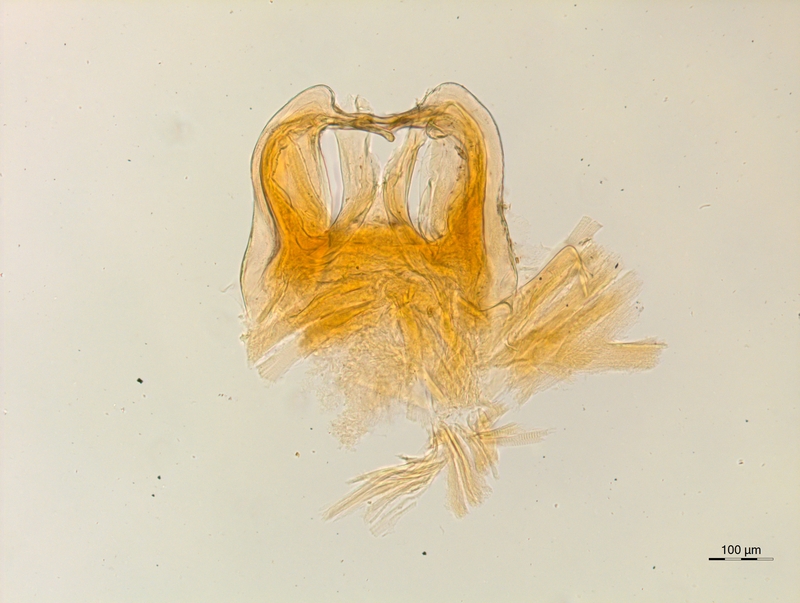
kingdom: Animalia
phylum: Arthropoda
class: Diplopoda
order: Chordeumatida
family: Attemsiidae
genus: Syngonopodium
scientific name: Syngonopodium aceris
